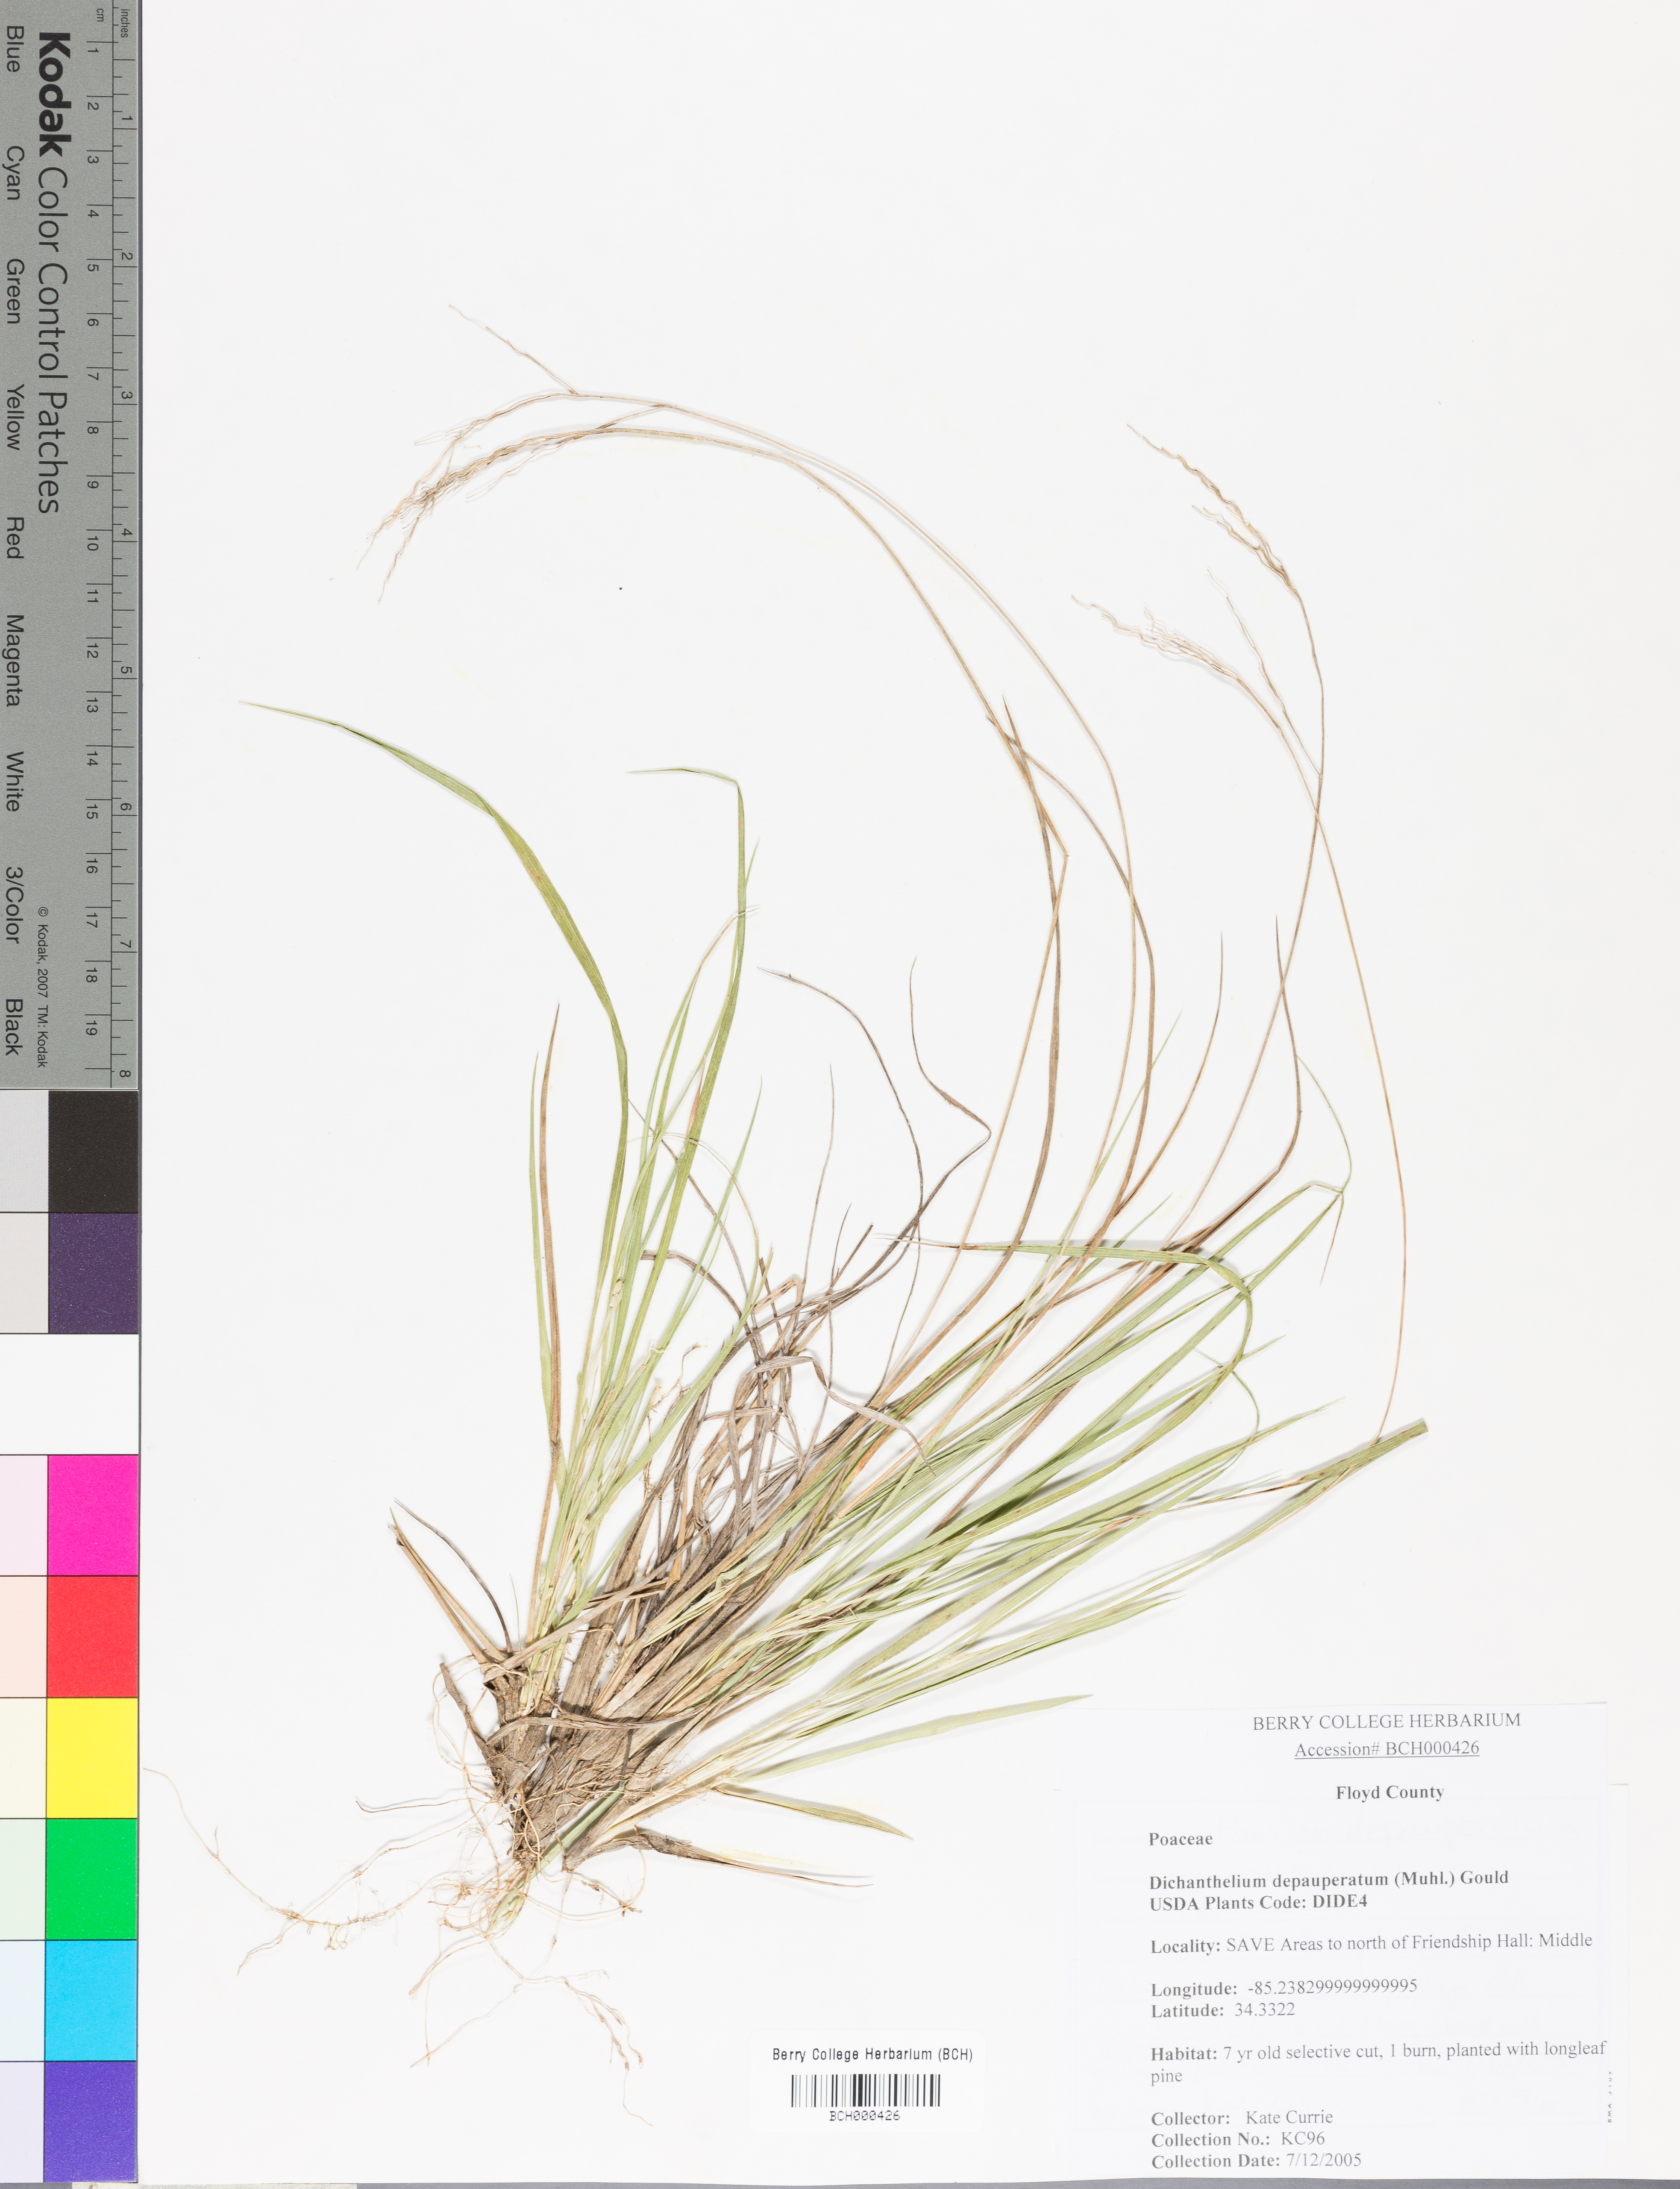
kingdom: Plantae
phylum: Tracheophyta
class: Liliopsida
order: Poales
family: Poaceae
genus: Dichanthelium
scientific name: Dichanthelium depauperatum
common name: Depauperate panicgrass
